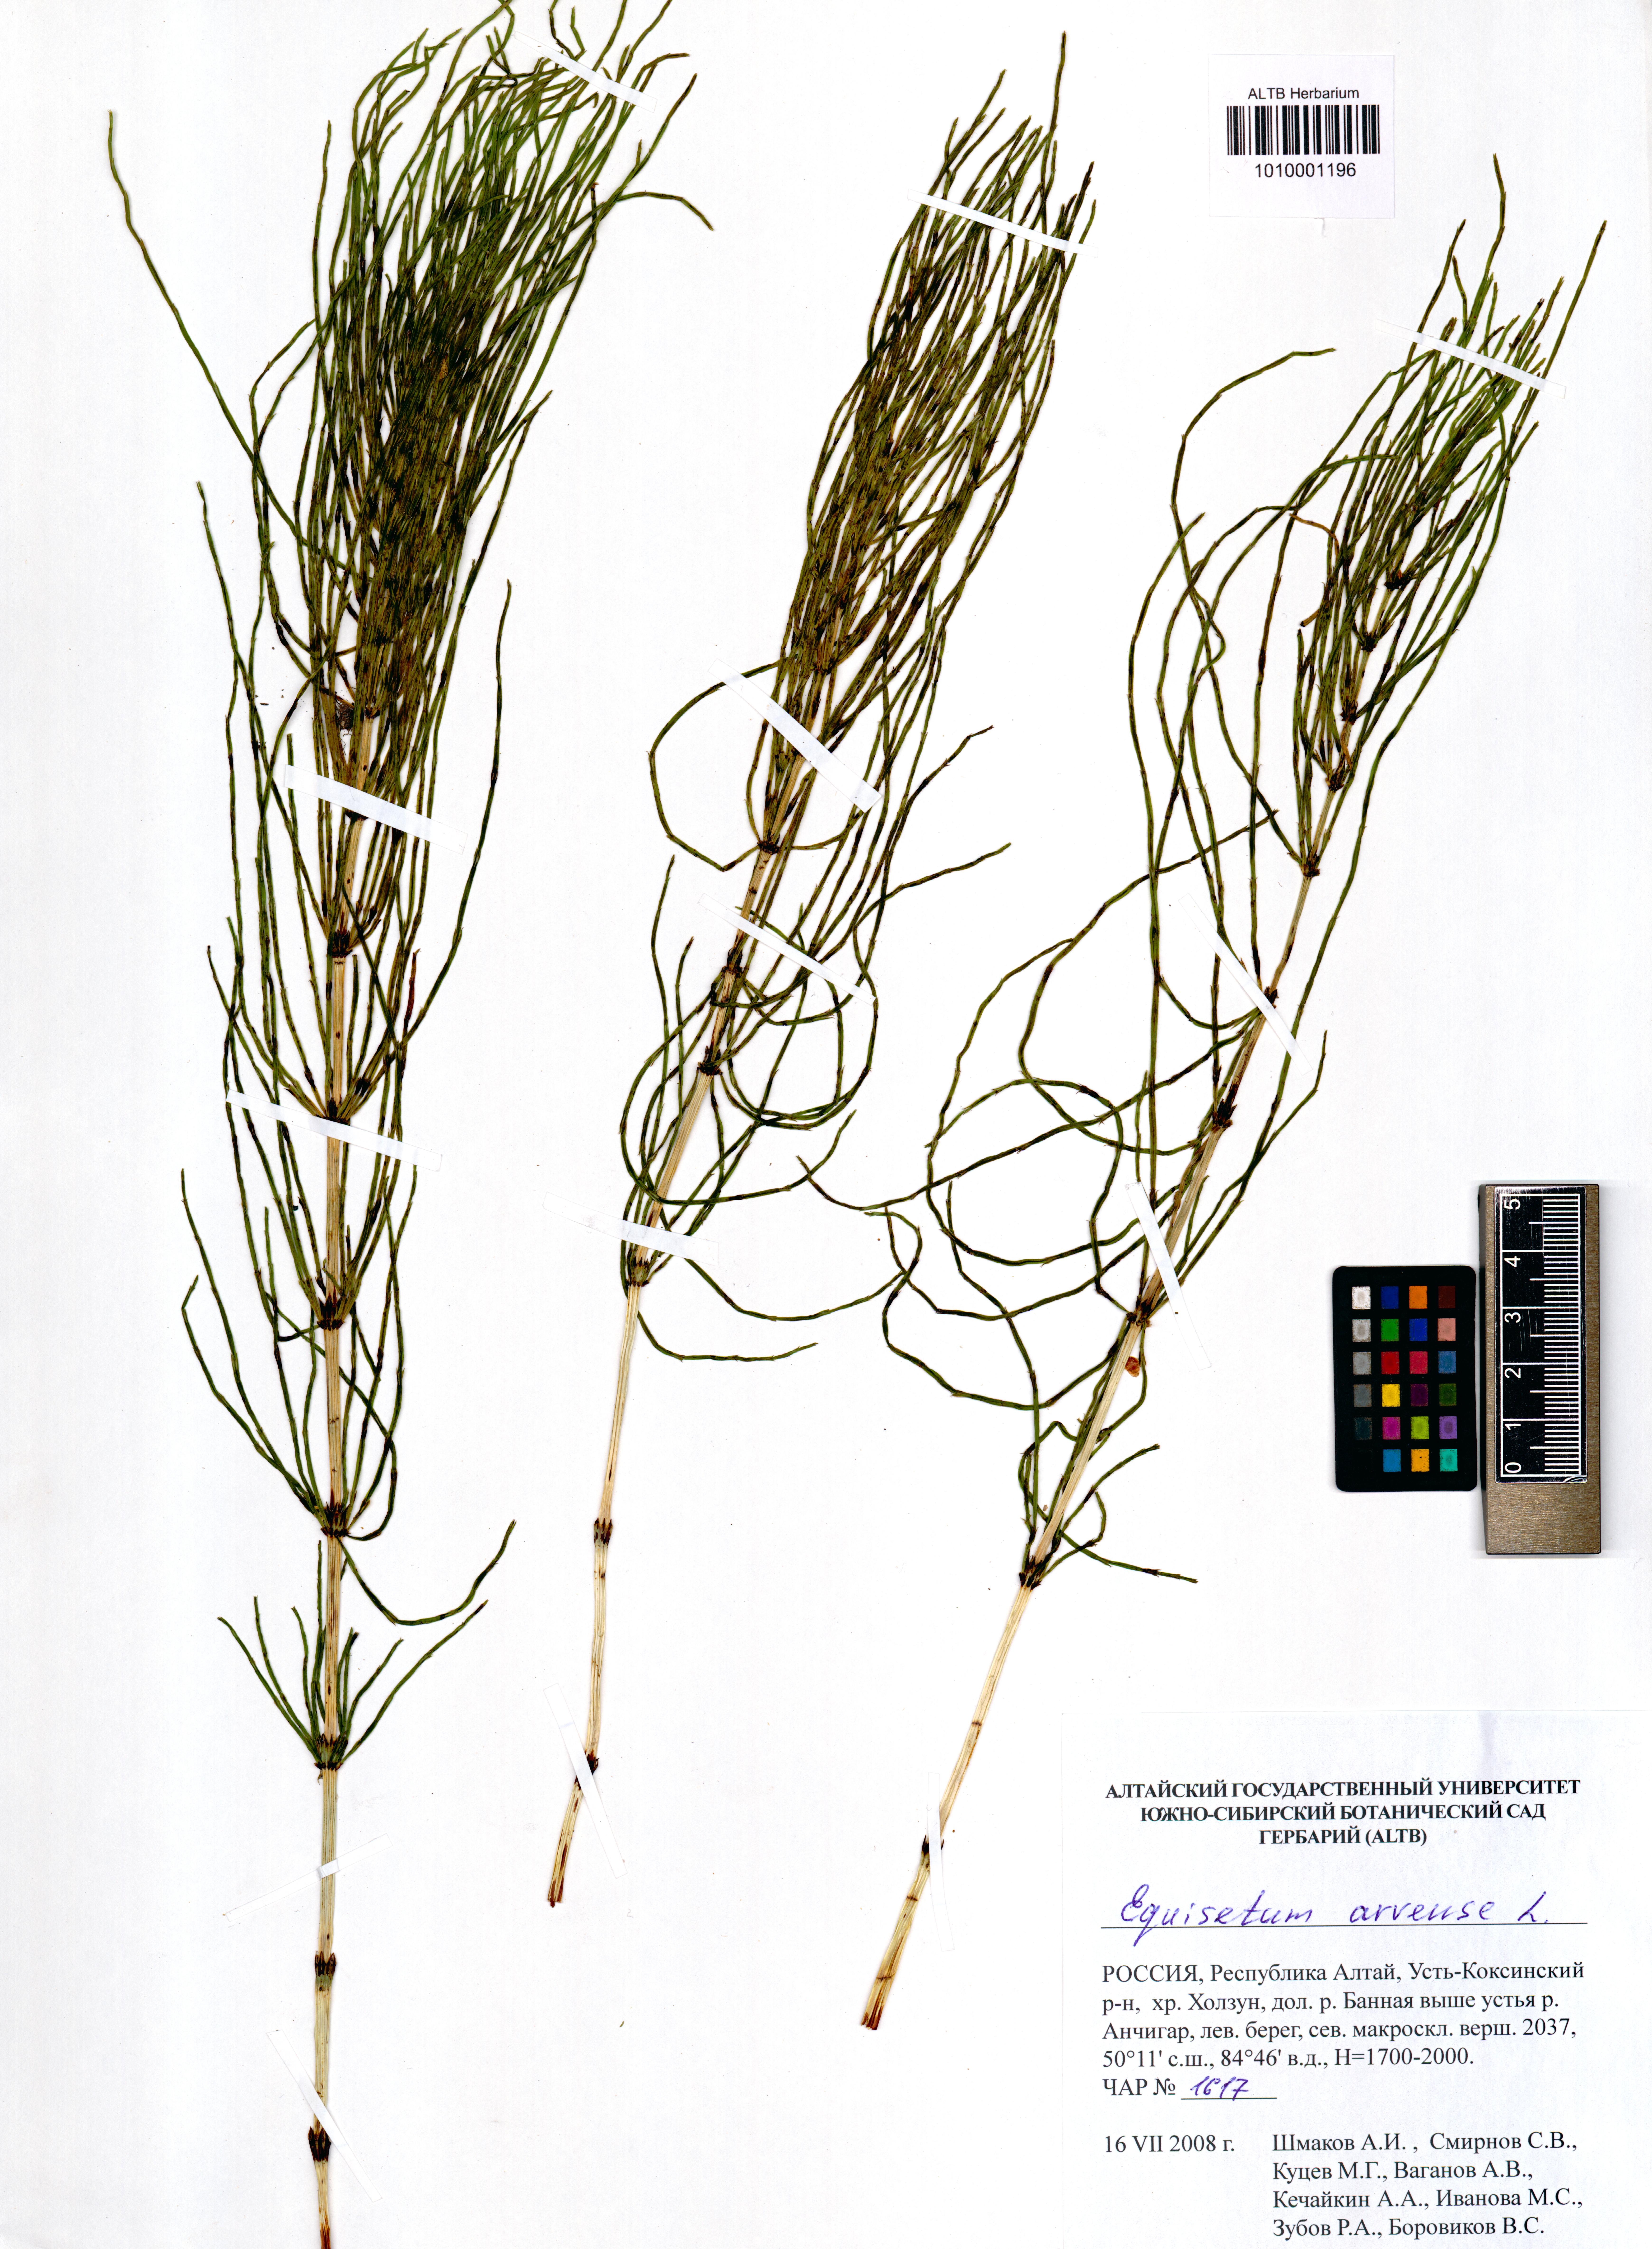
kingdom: Plantae
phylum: Tracheophyta
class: Polypodiopsida
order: Equisetales
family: Equisetaceae
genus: Equisetum
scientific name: Equisetum arvense
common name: Field horsetail
